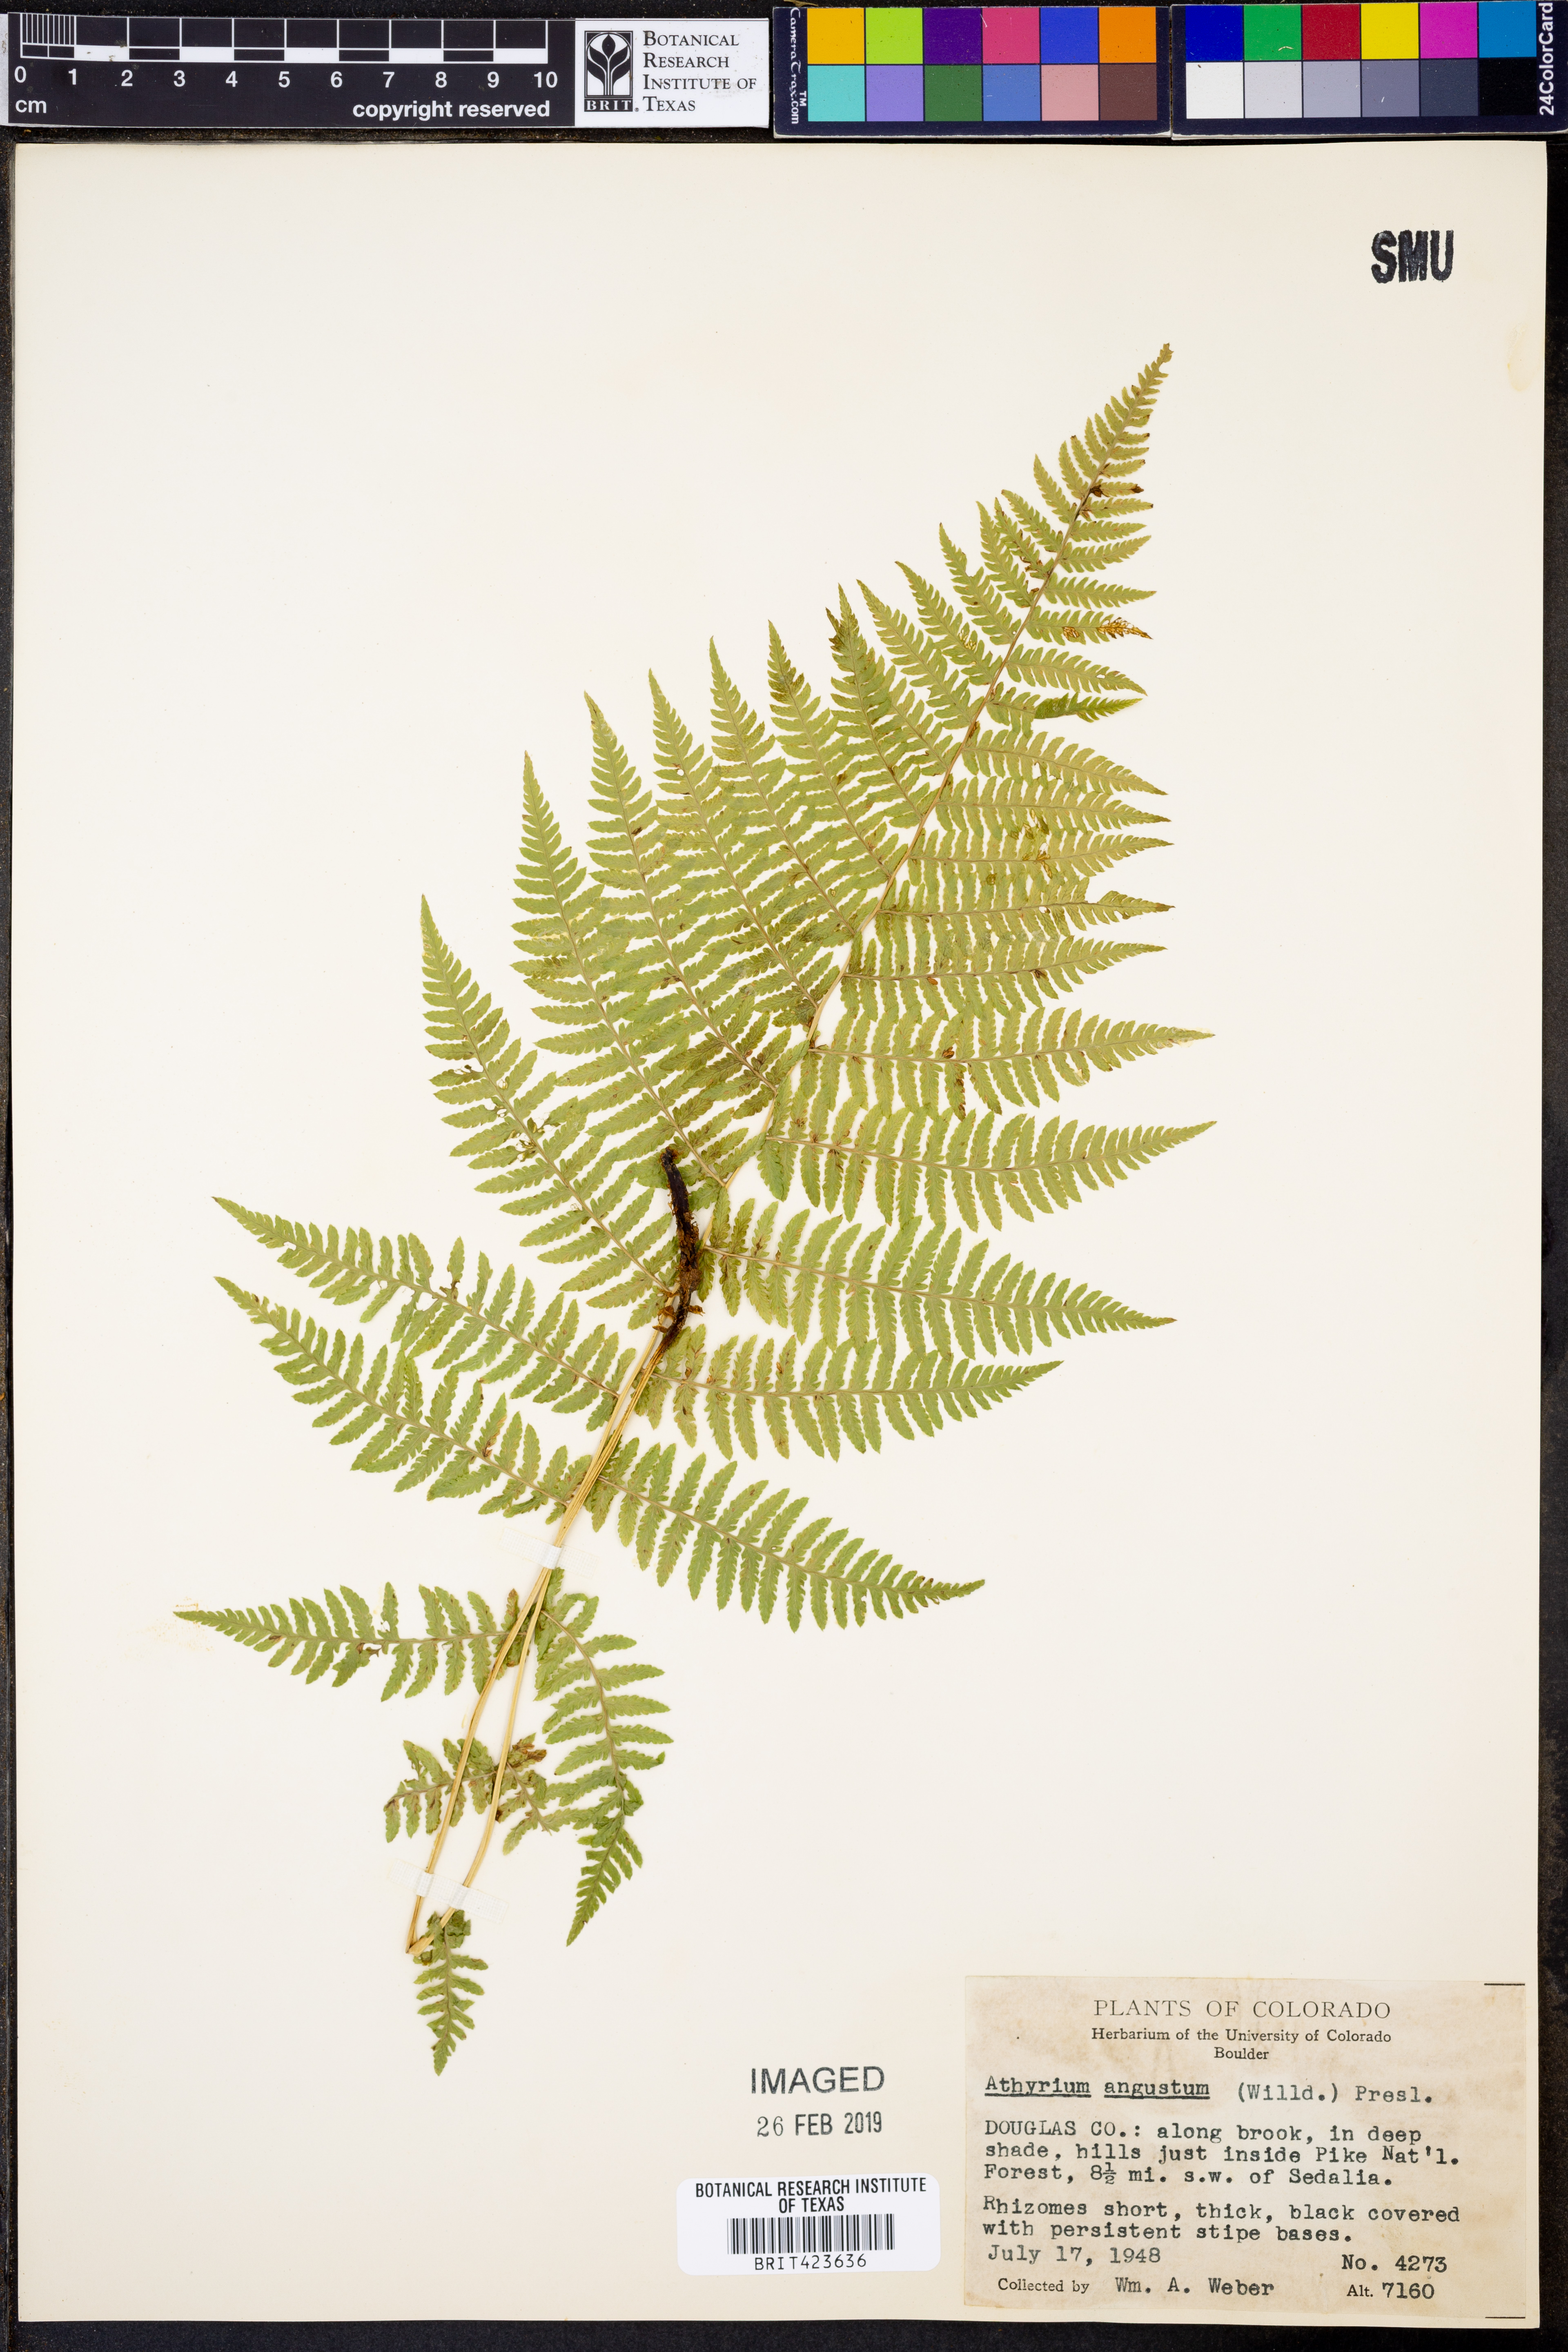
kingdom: Plantae
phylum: Tracheophyta
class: Polypodiopsida
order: Polypodiales
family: Athyriaceae
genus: Athyrium
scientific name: Athyrium angustum
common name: Northern lady fern
